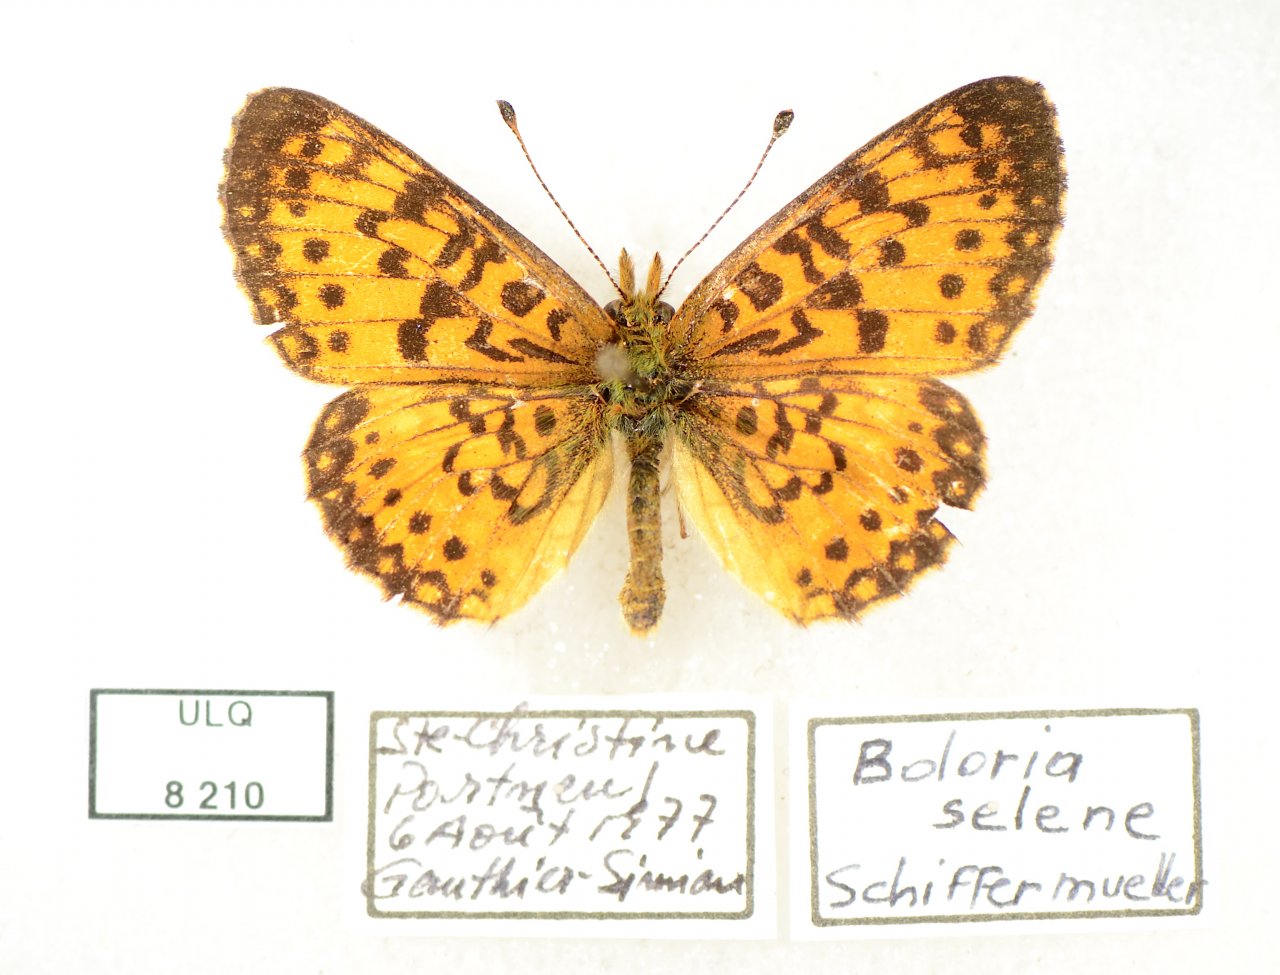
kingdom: Animalia
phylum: Arthropoda
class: Insecta
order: Lepidoptera
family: Nymphalidae
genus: Boloria
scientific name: Boloria
